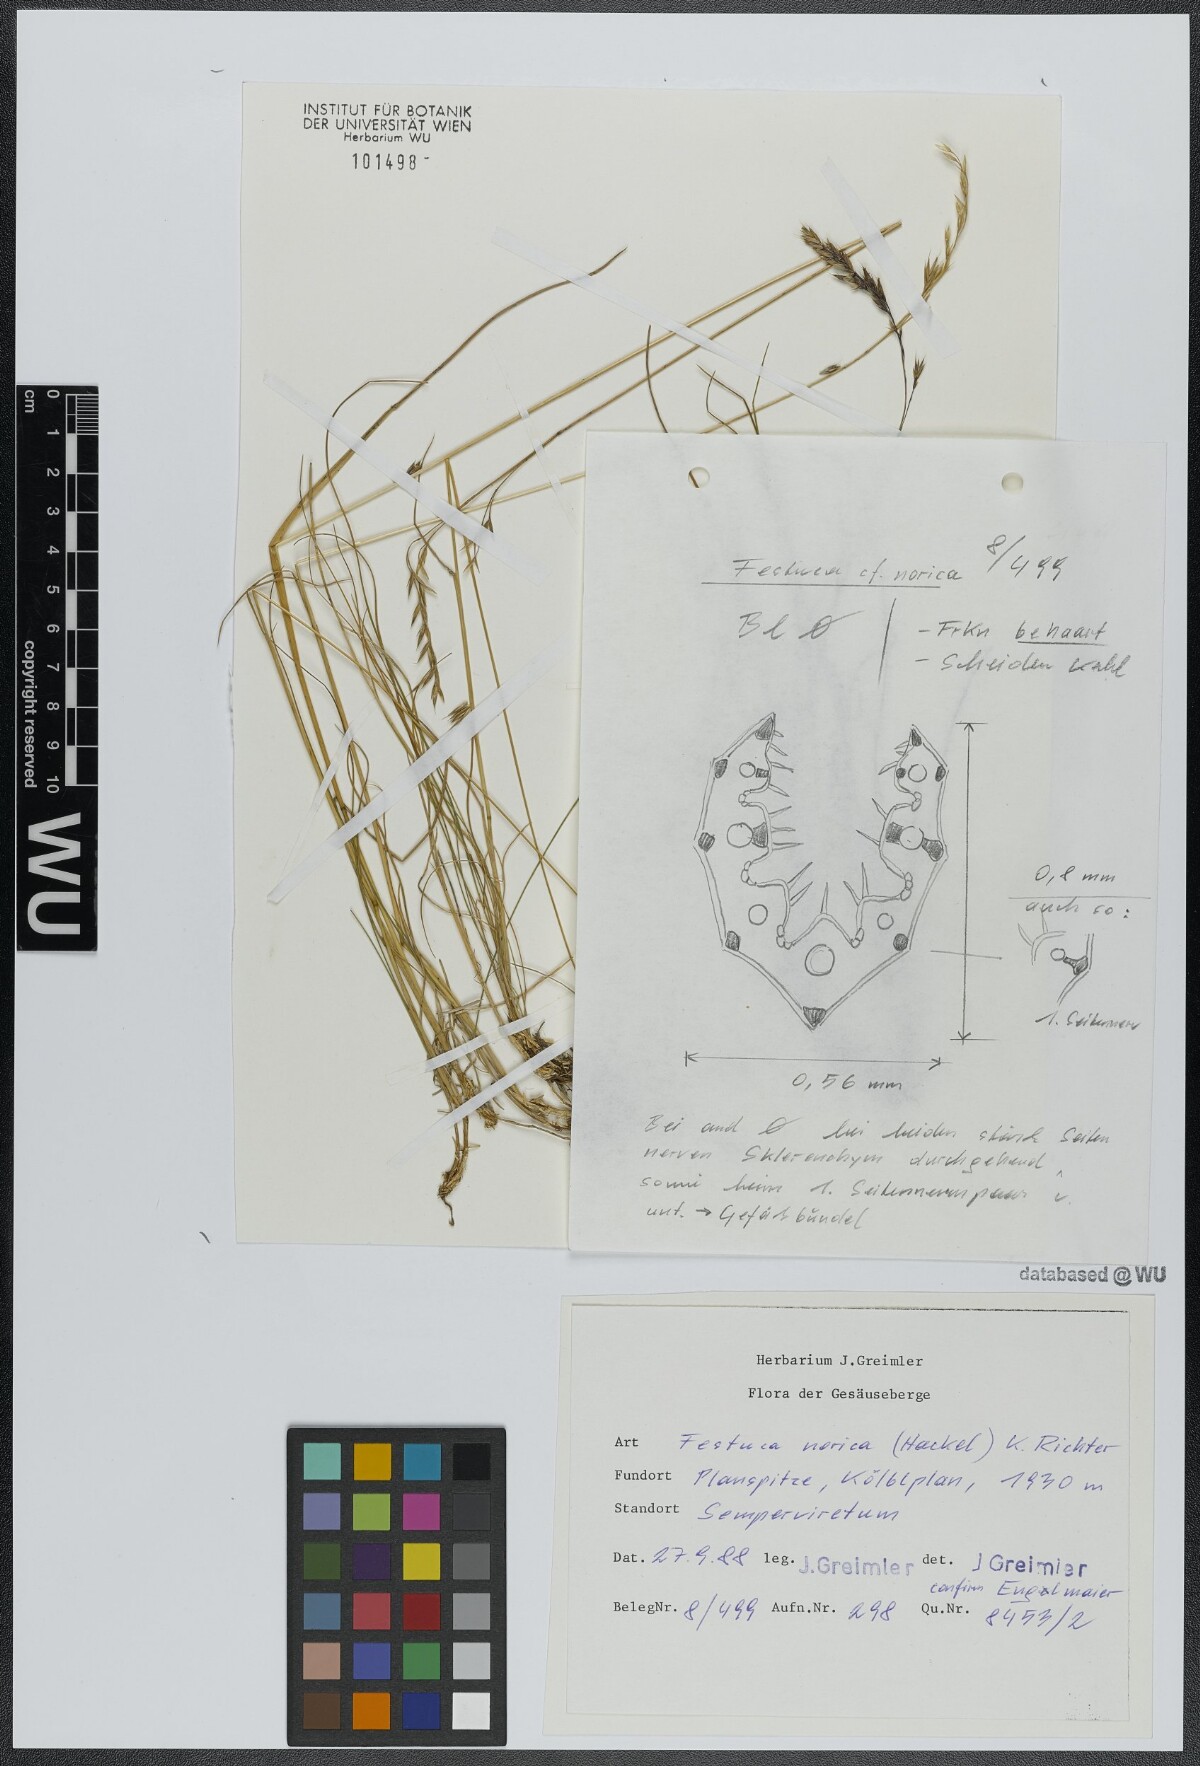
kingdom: Plantae
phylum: Tracheophyta
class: Liliopsida
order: Poales
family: Poaceae
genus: Festuca
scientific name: Festuca rupicaprina
